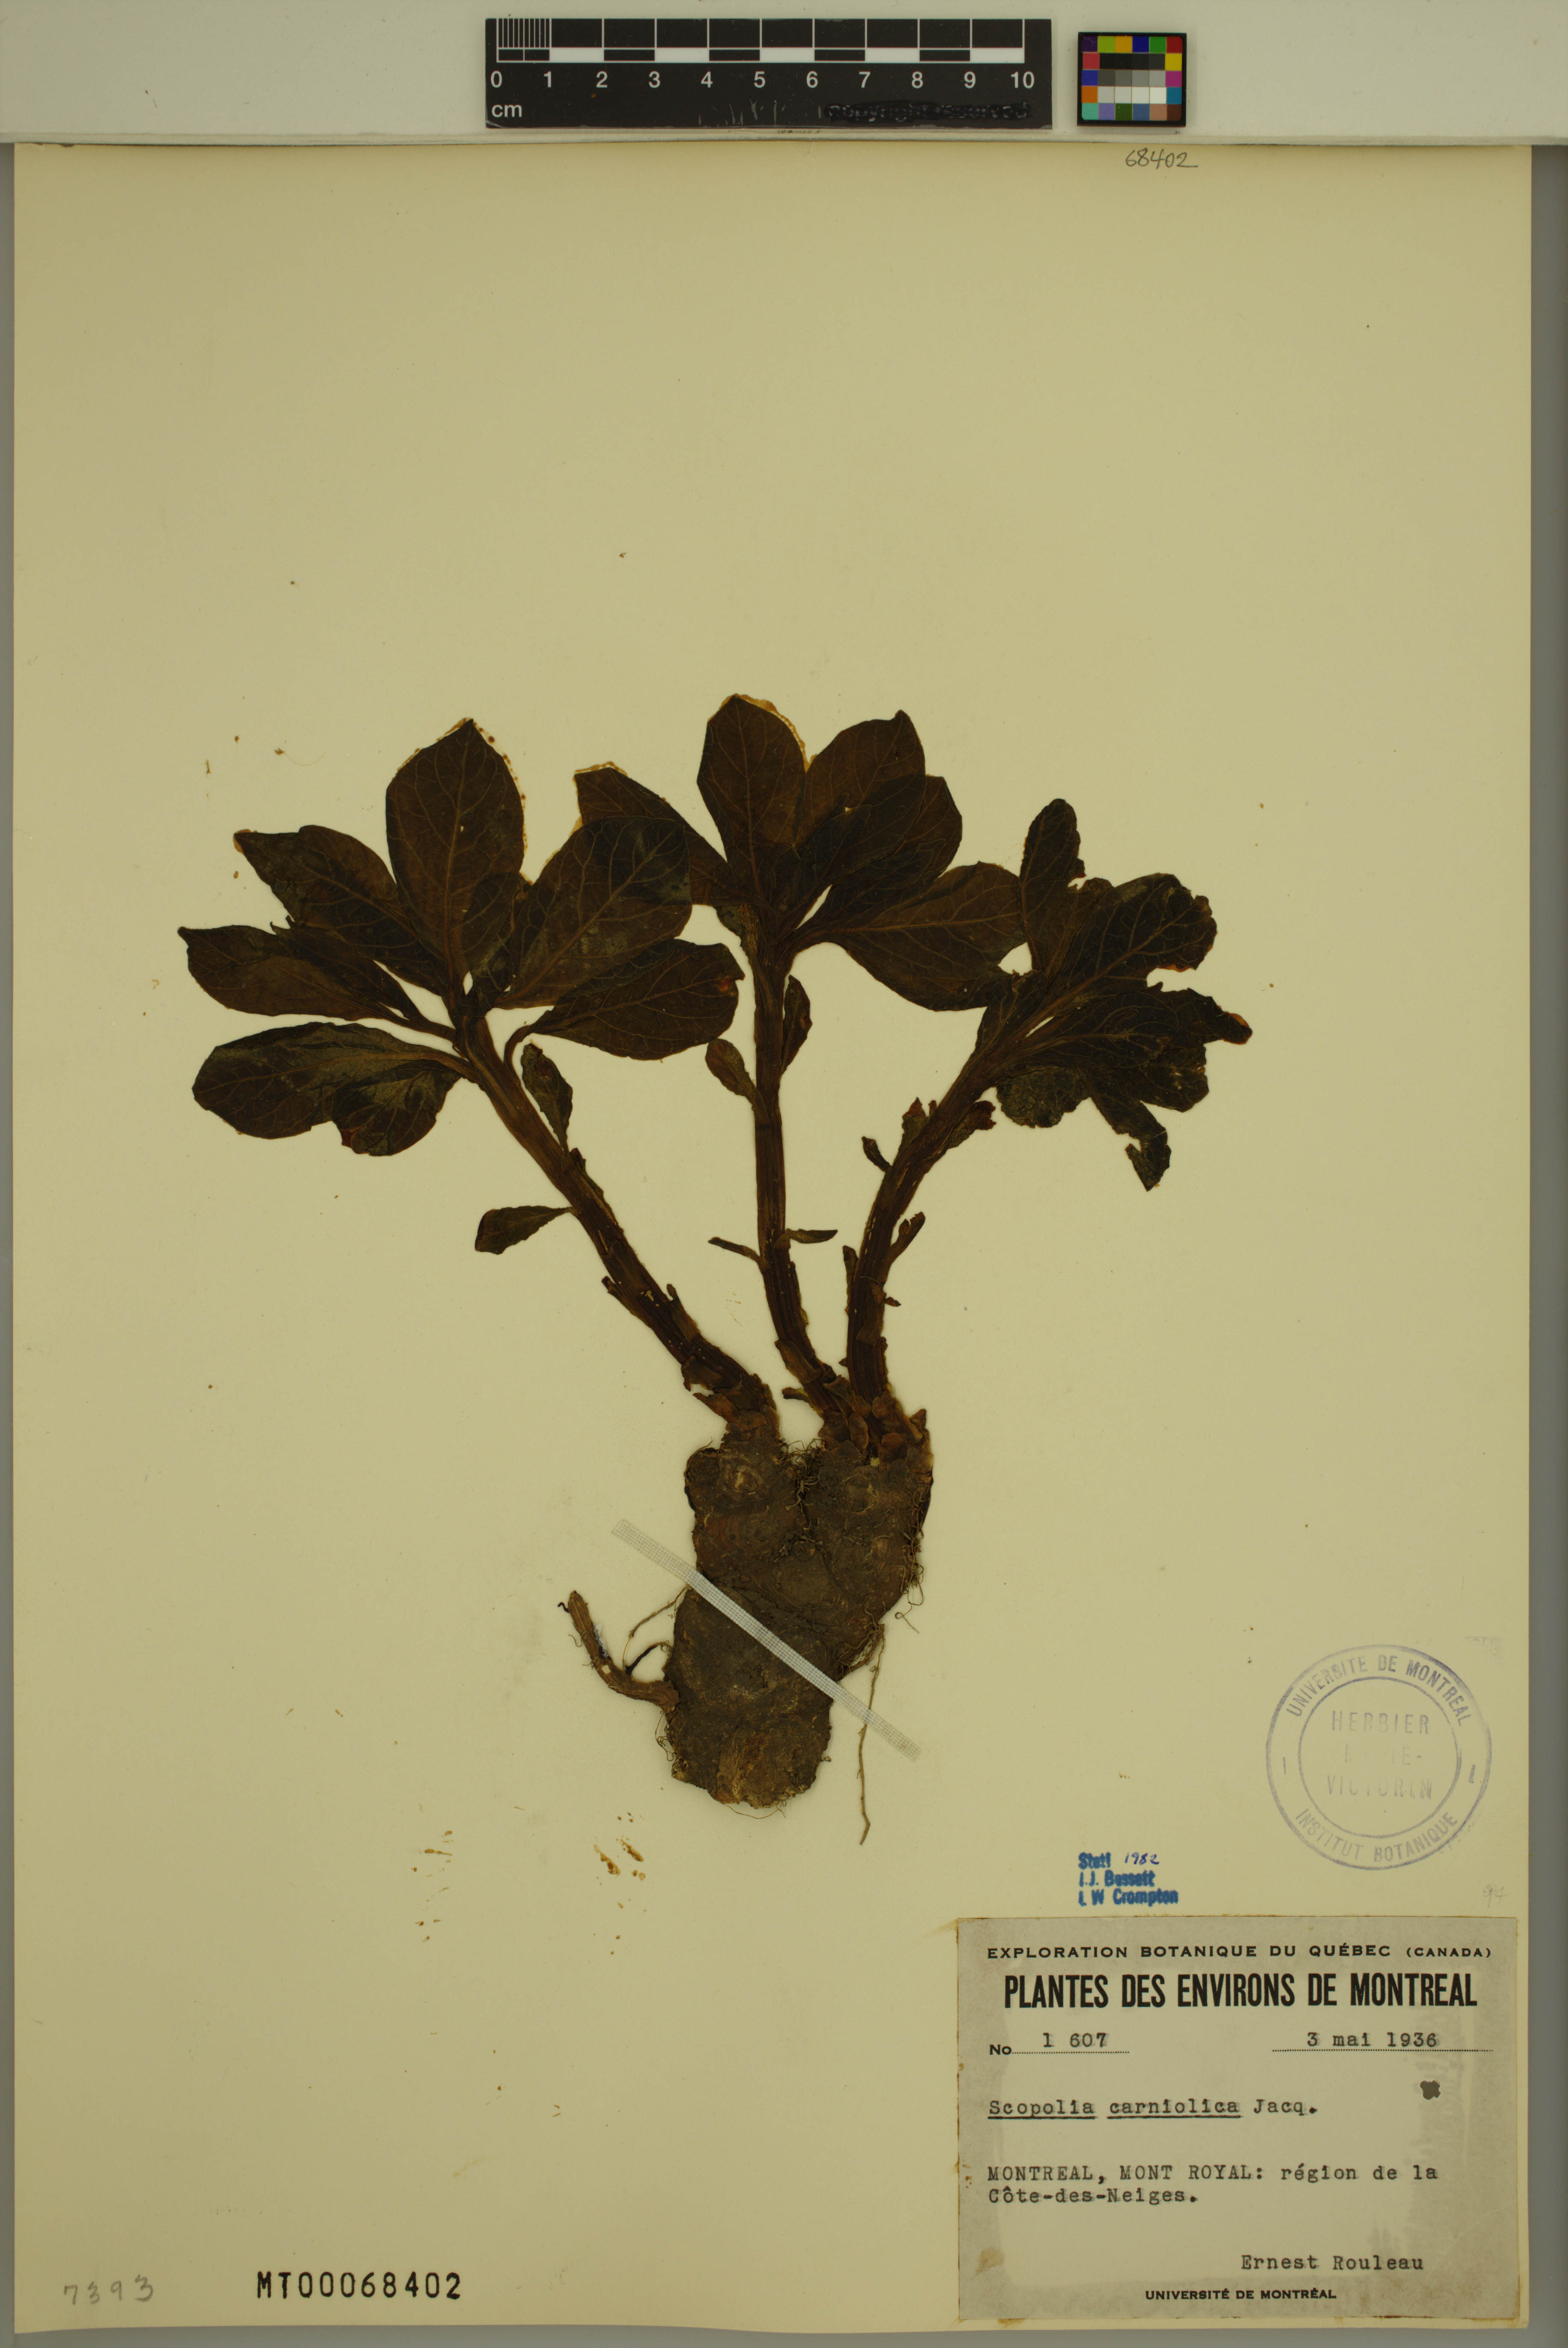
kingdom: Plantae
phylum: Tracheophyta
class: Magnoliopsida
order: Solanales
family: Solanaceae
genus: Scopolia
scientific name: Scopolia carniolica
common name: Scopolia
